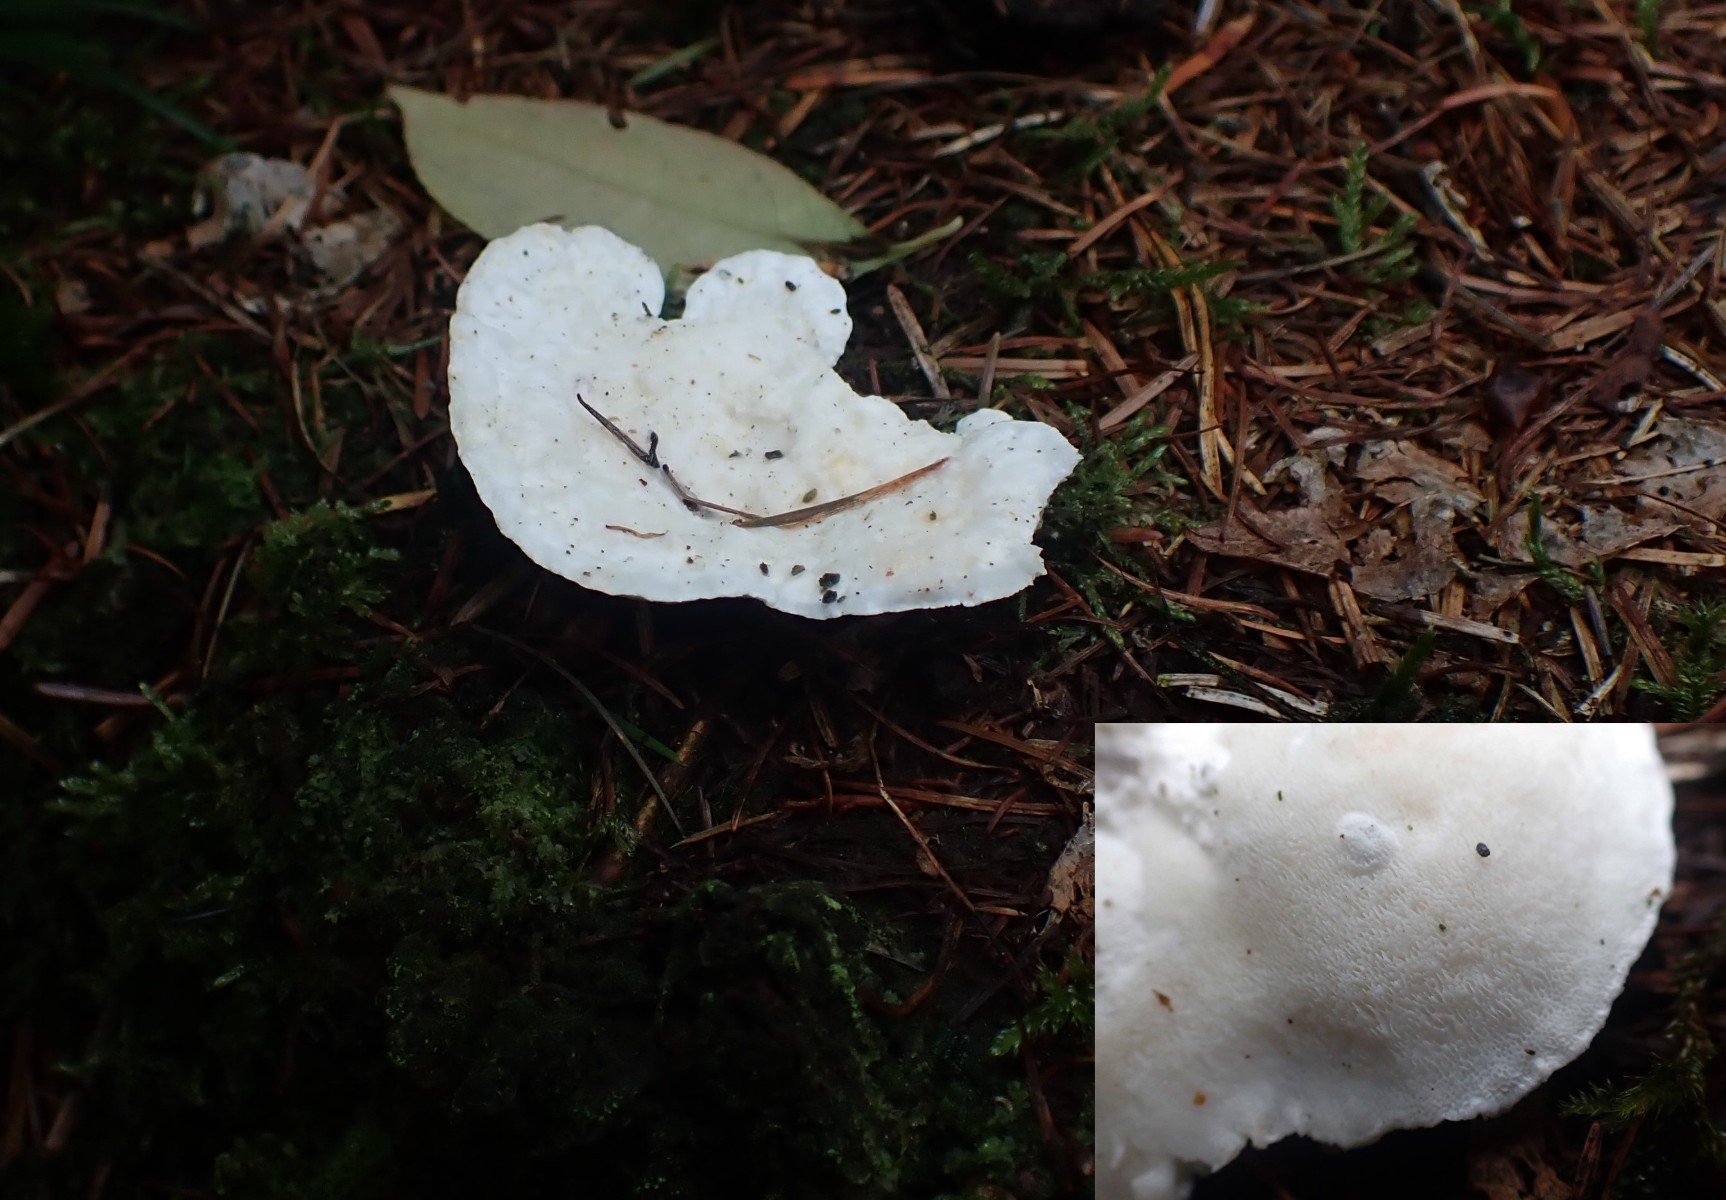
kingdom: Fungi
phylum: Basidiomycota
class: Agaricomycetes
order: Polyporales
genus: Amaropostia
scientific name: Amaropostia stiptica
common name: bitter kødporesvamp
